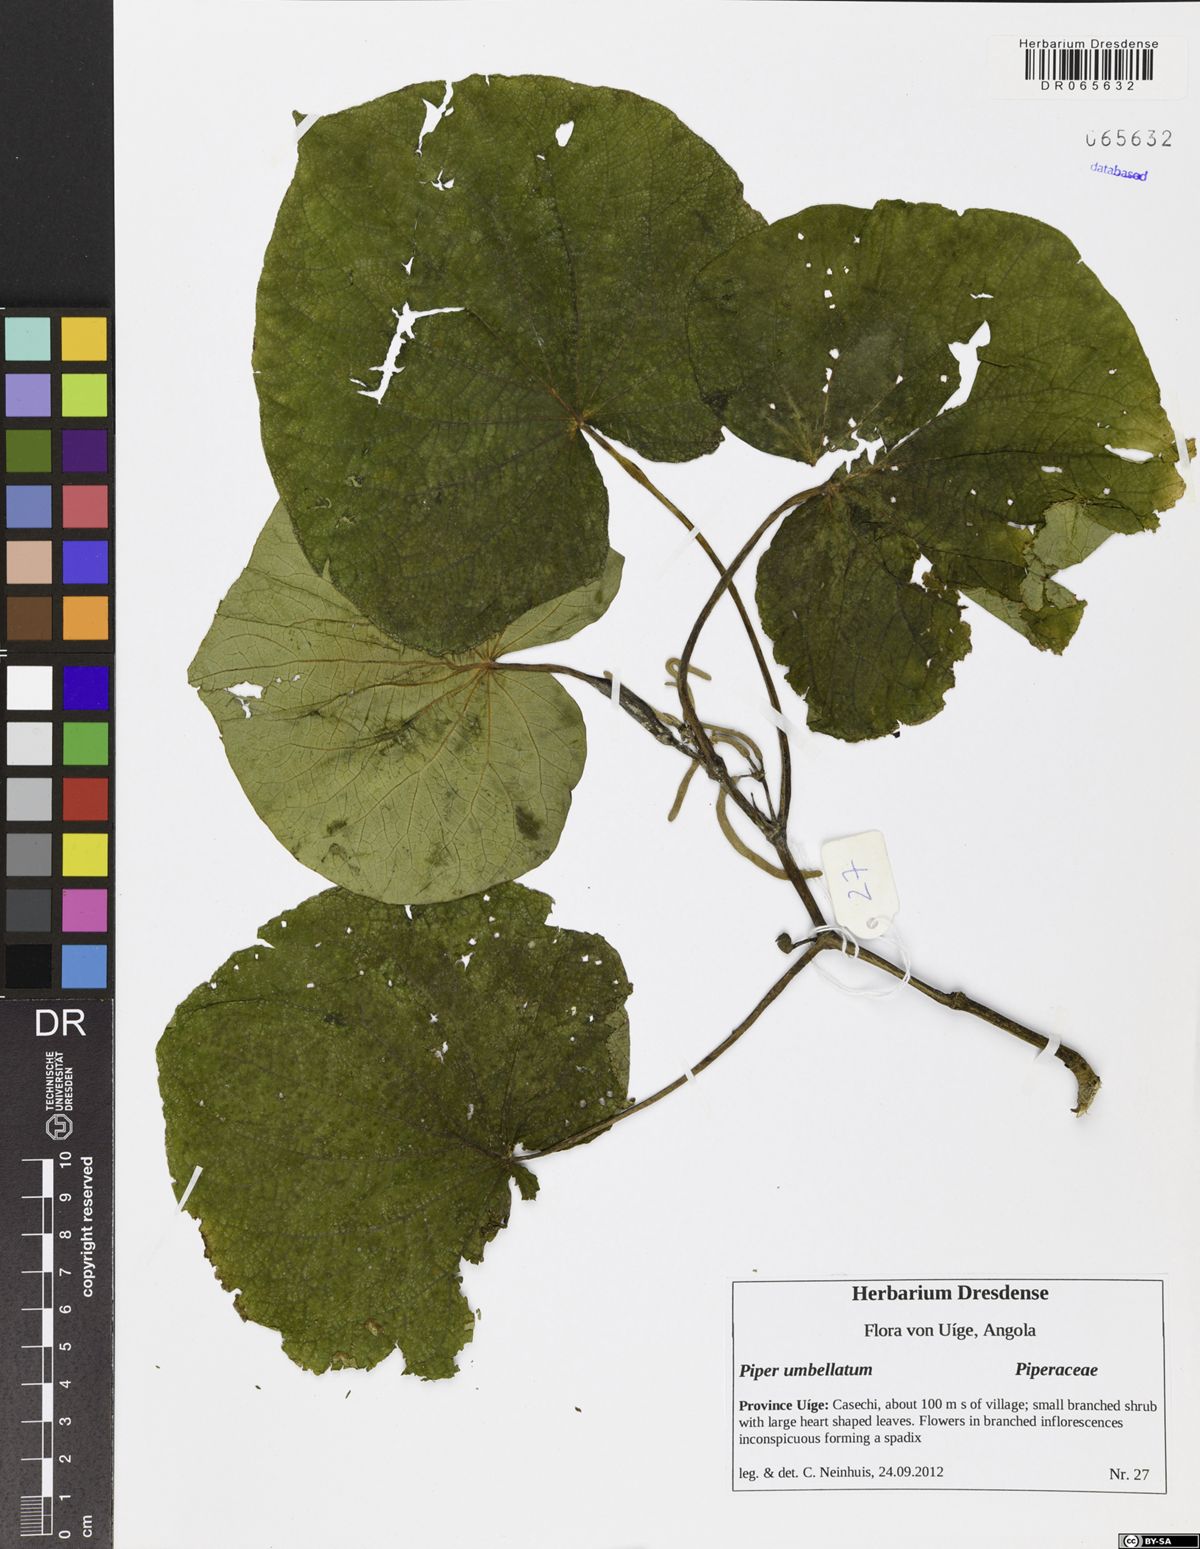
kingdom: Plantae
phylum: Tracheophyta
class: Magnoliopsida
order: Piperales
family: Piperaceae
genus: Piper
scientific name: Piper umbellatum
